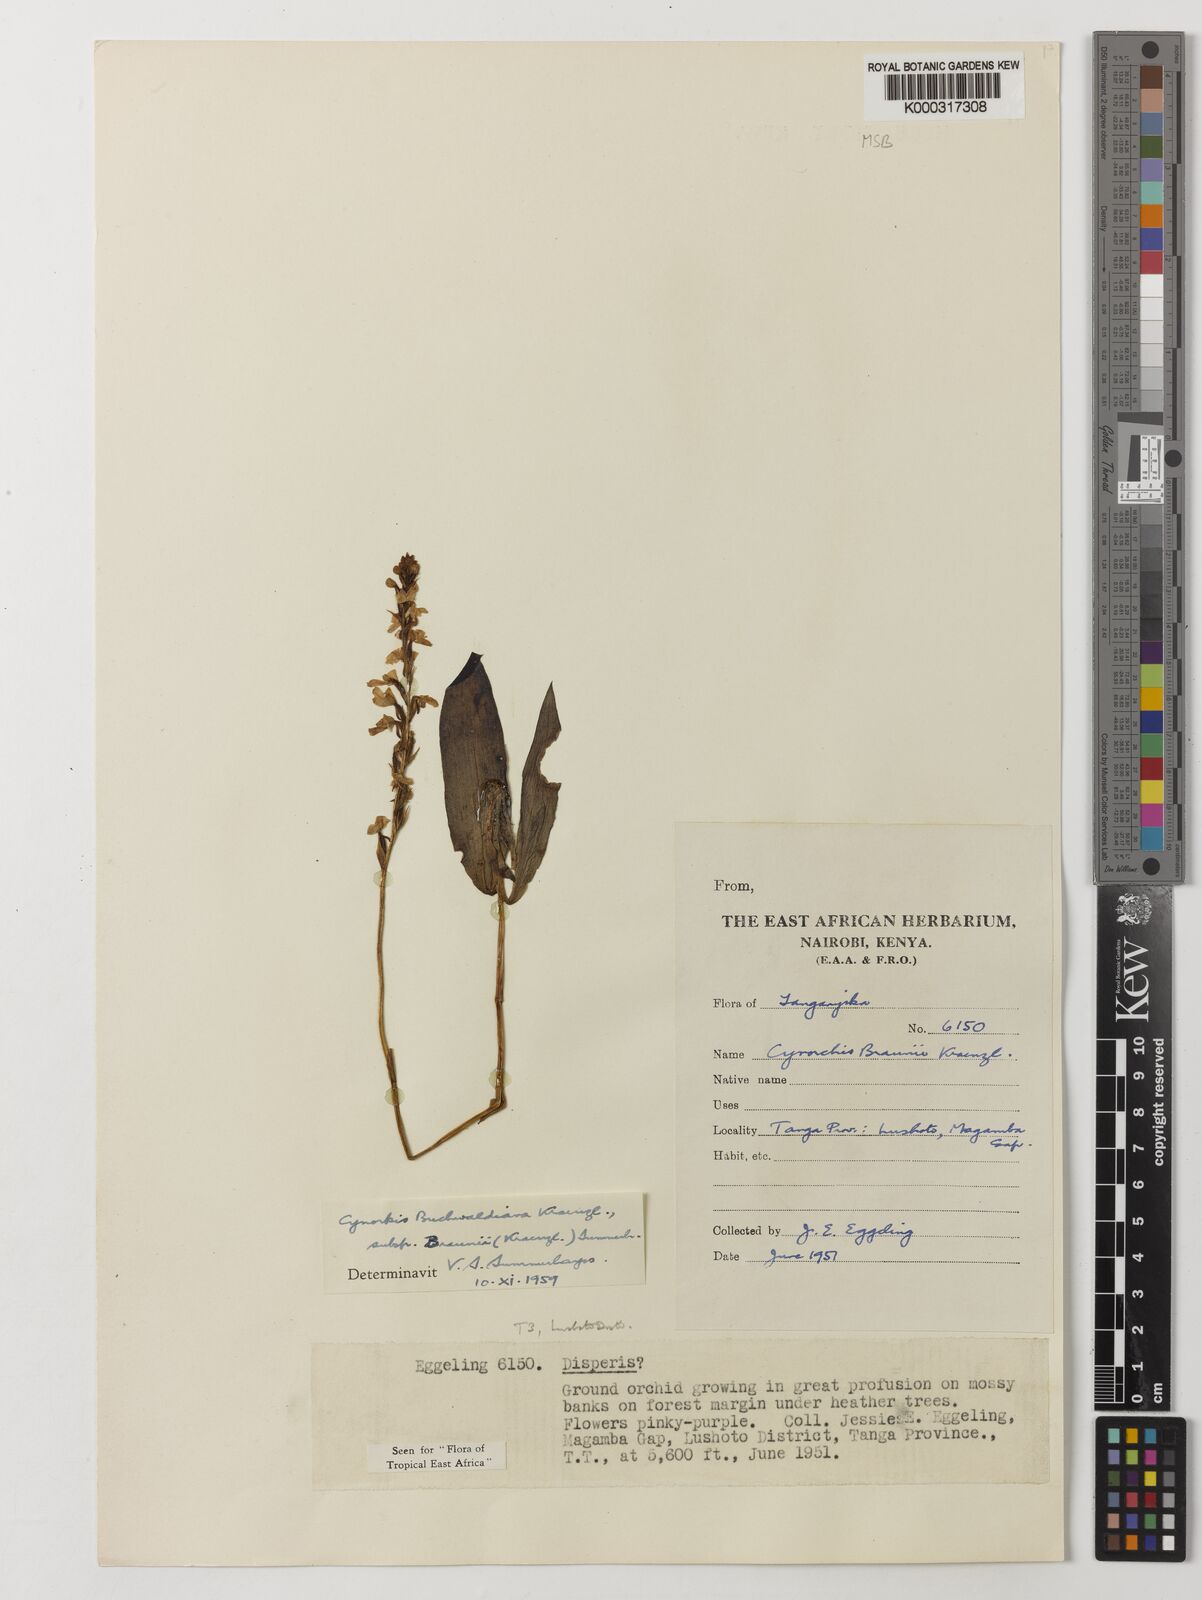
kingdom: Plantae
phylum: Tracheophyta
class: Liliopsida
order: Asparagales
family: Orchidaceae
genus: Cynorkis
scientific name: Cynorkis buchwaldiana
